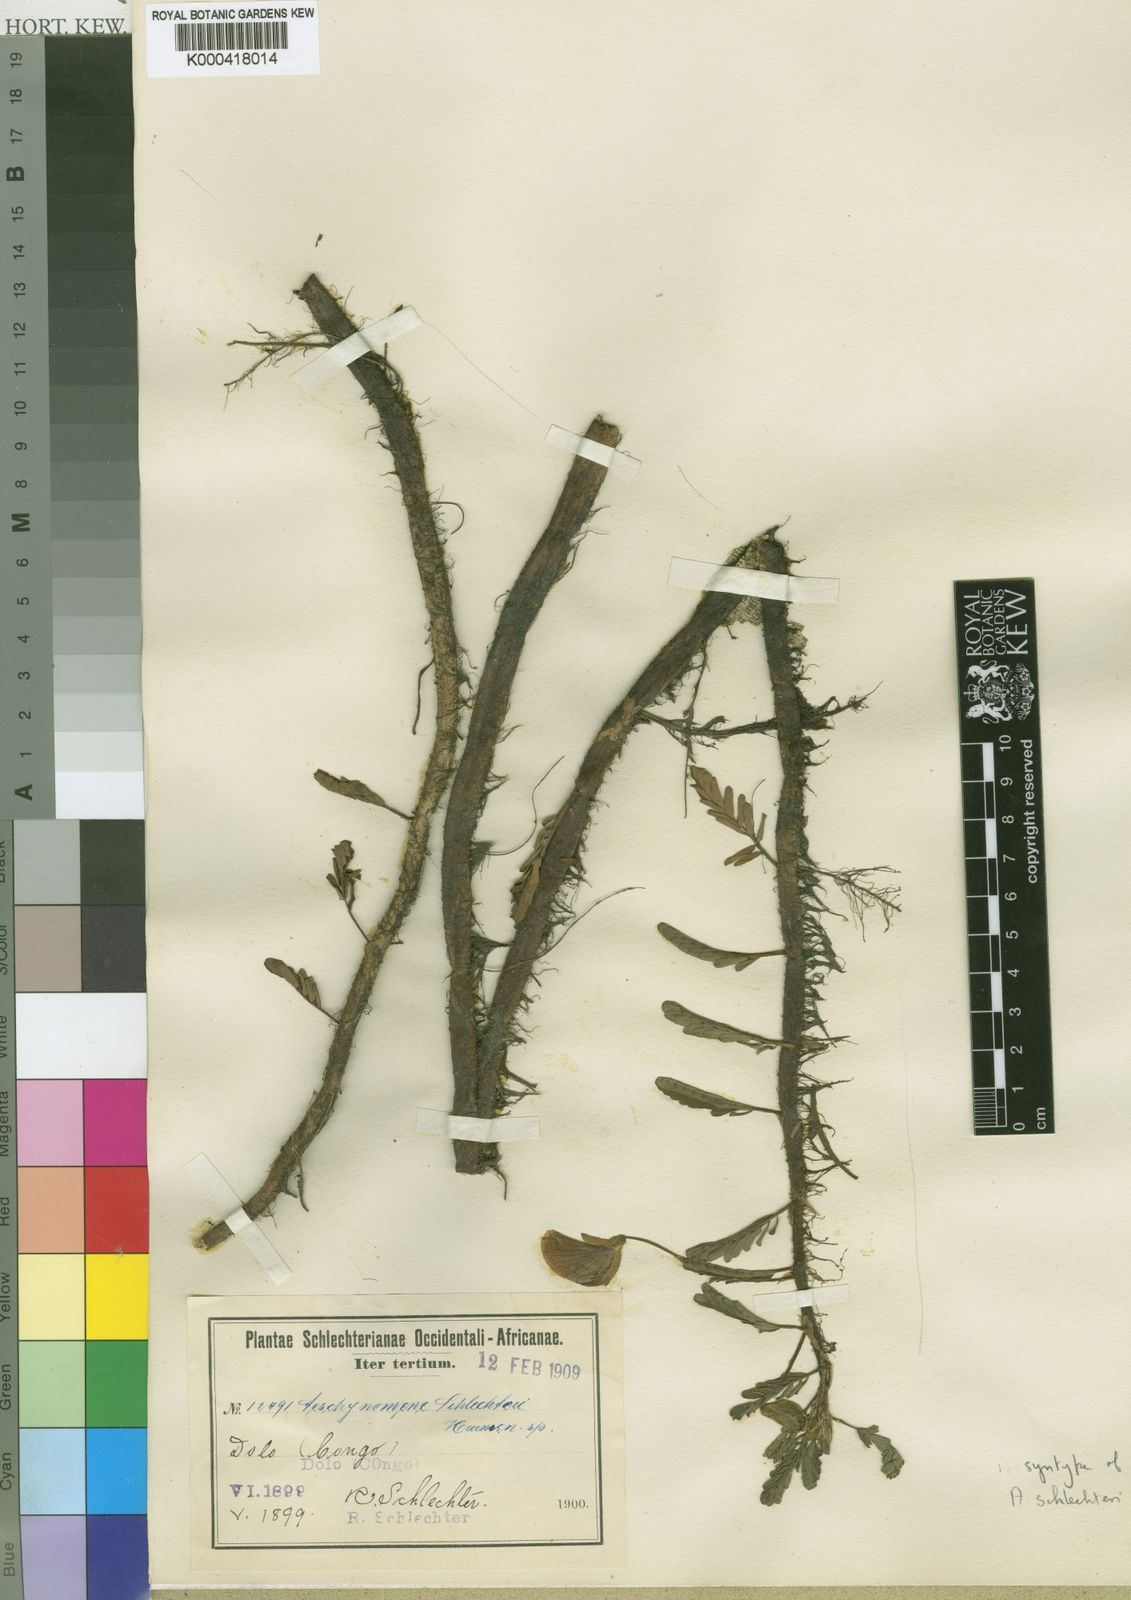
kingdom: Plantae
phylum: Tracheophyta
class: Magnoliopsida
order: Fabales
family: Fabaceae
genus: Aeschynomene
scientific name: Aeschynomene fluitans
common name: Giant water sensitive plant
